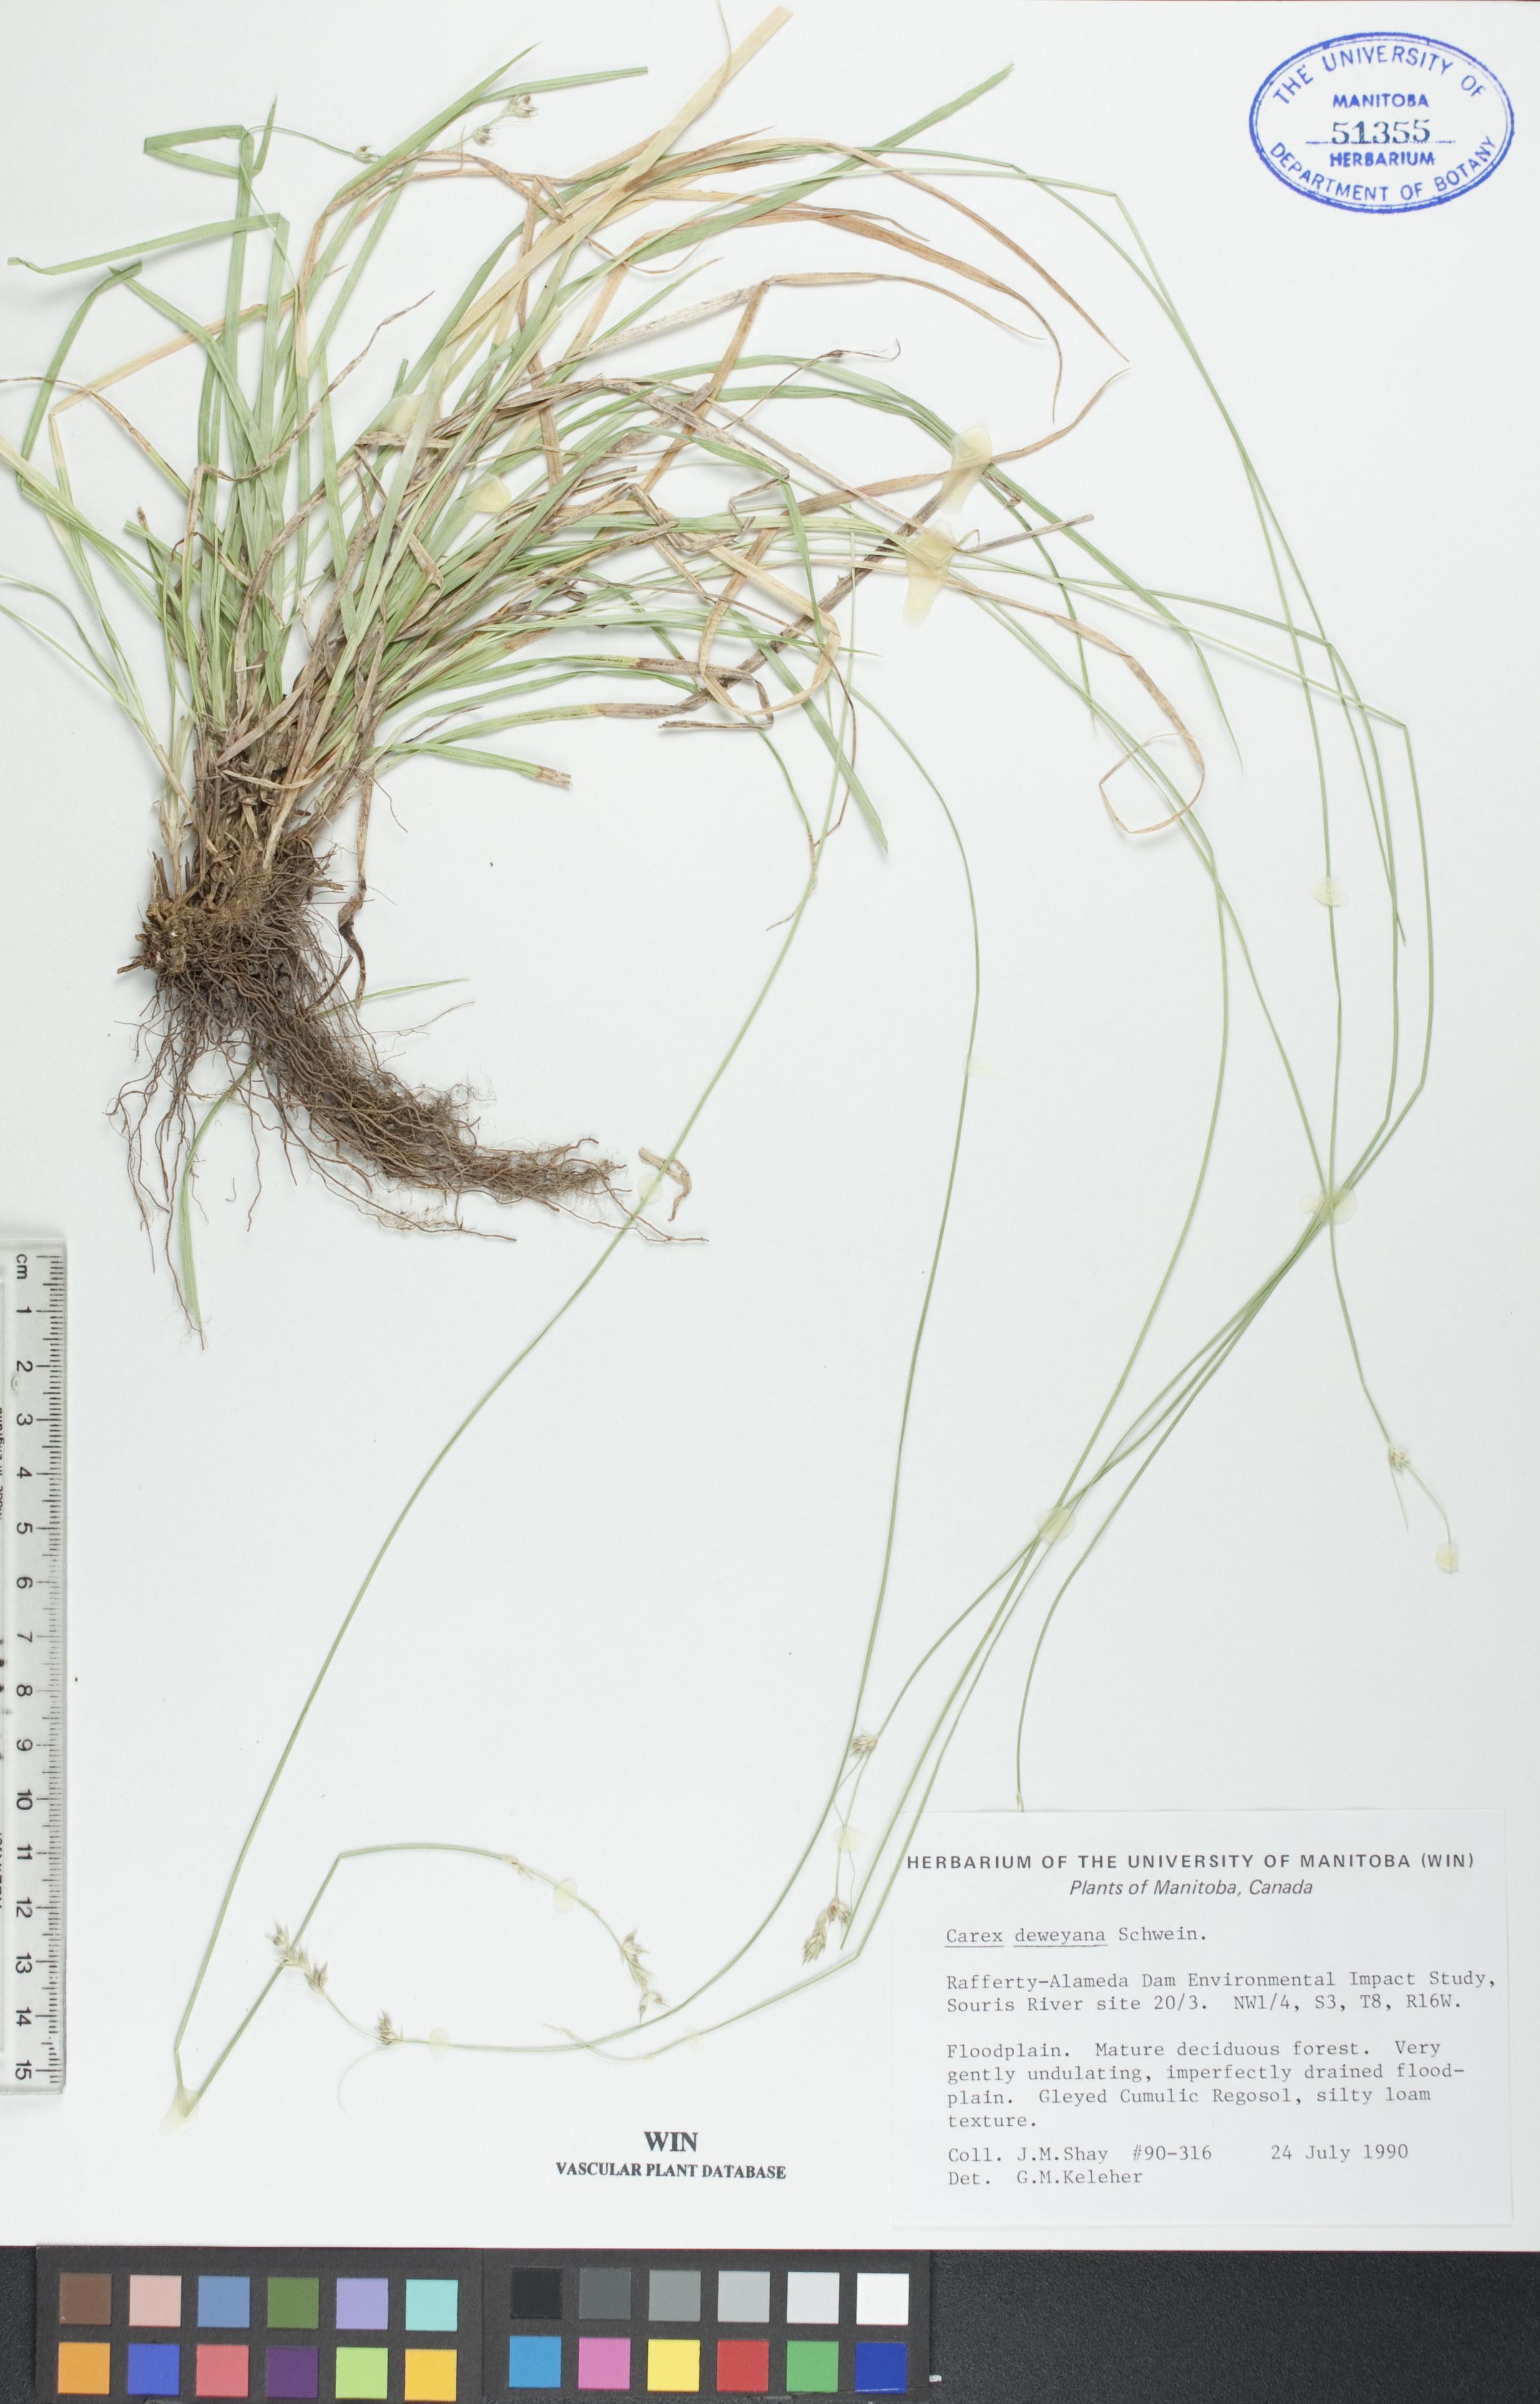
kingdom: Plantae
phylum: Tracheophyta
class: Liliopsida
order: Poales
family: Cyperaceae
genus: Carex
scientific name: Carex deweyana
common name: Dewey's sedge
